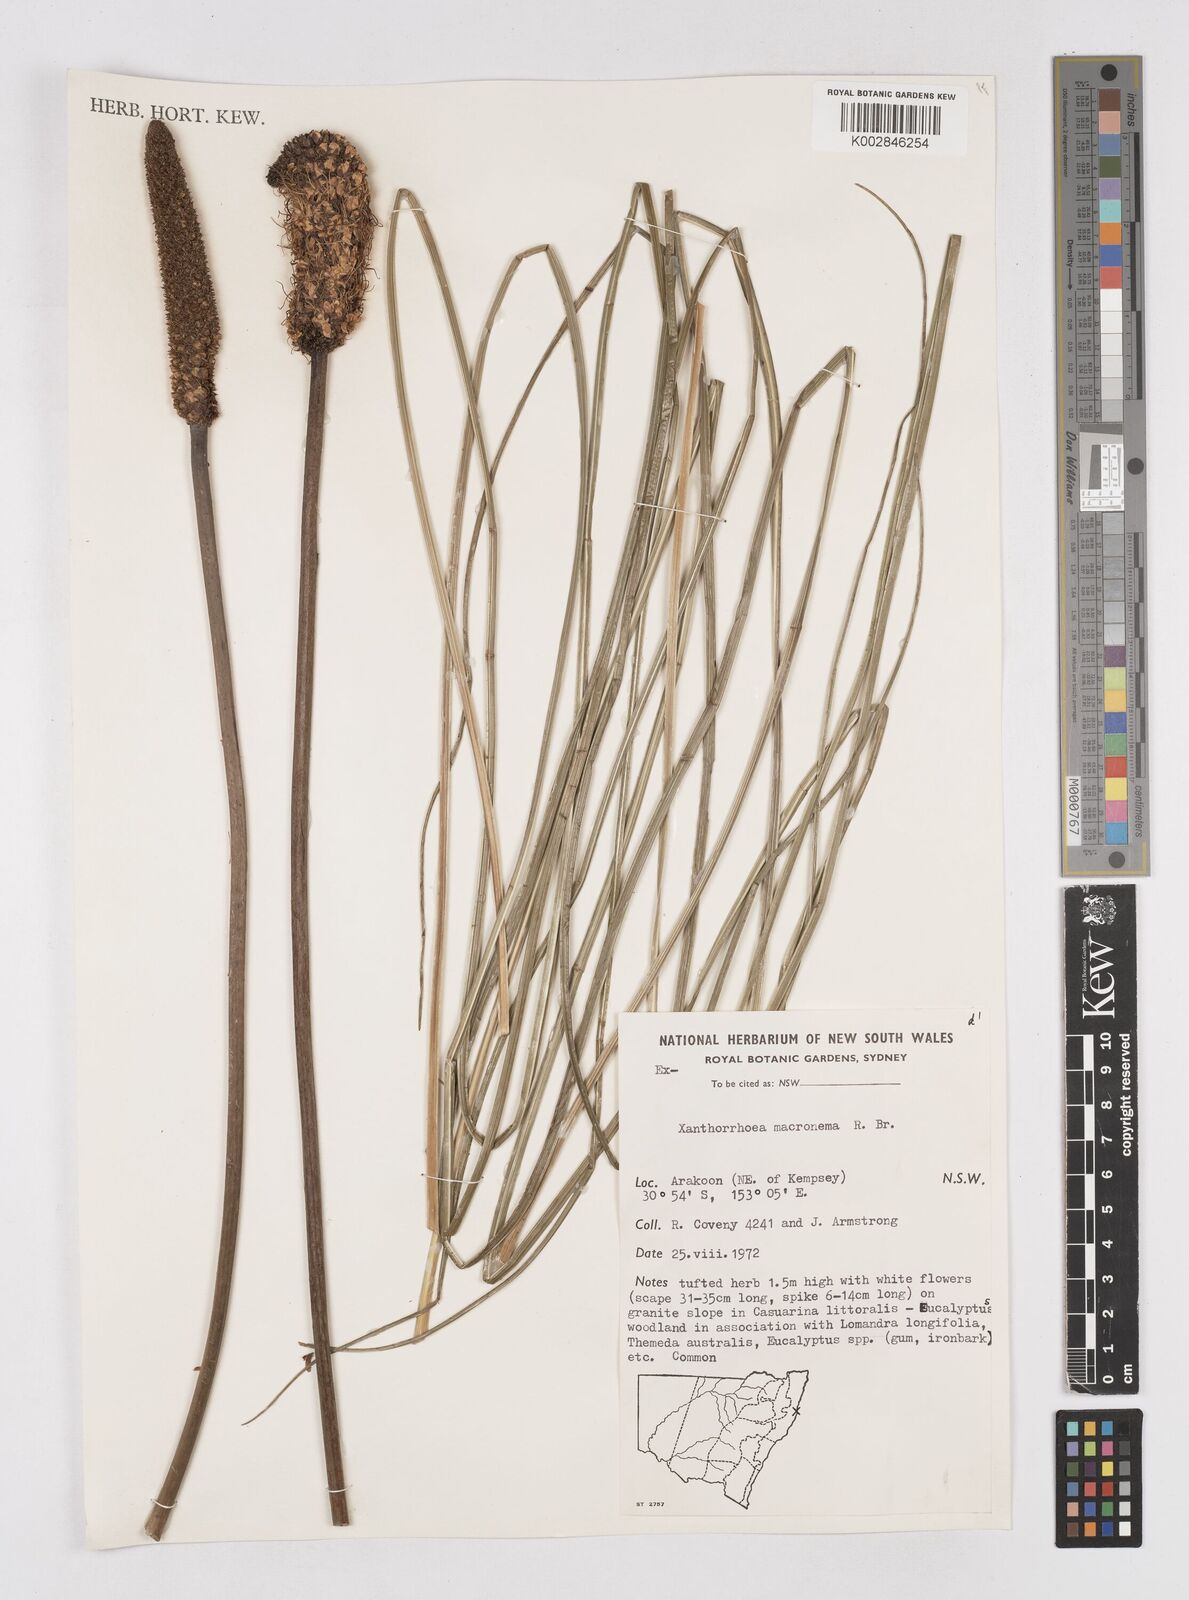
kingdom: Plantae
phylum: Tracheophyta
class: Liliopsida
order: Asparagales
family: Asphodelaceae
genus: Xanthorrhoea
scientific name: Xanthorrhoea macronema
